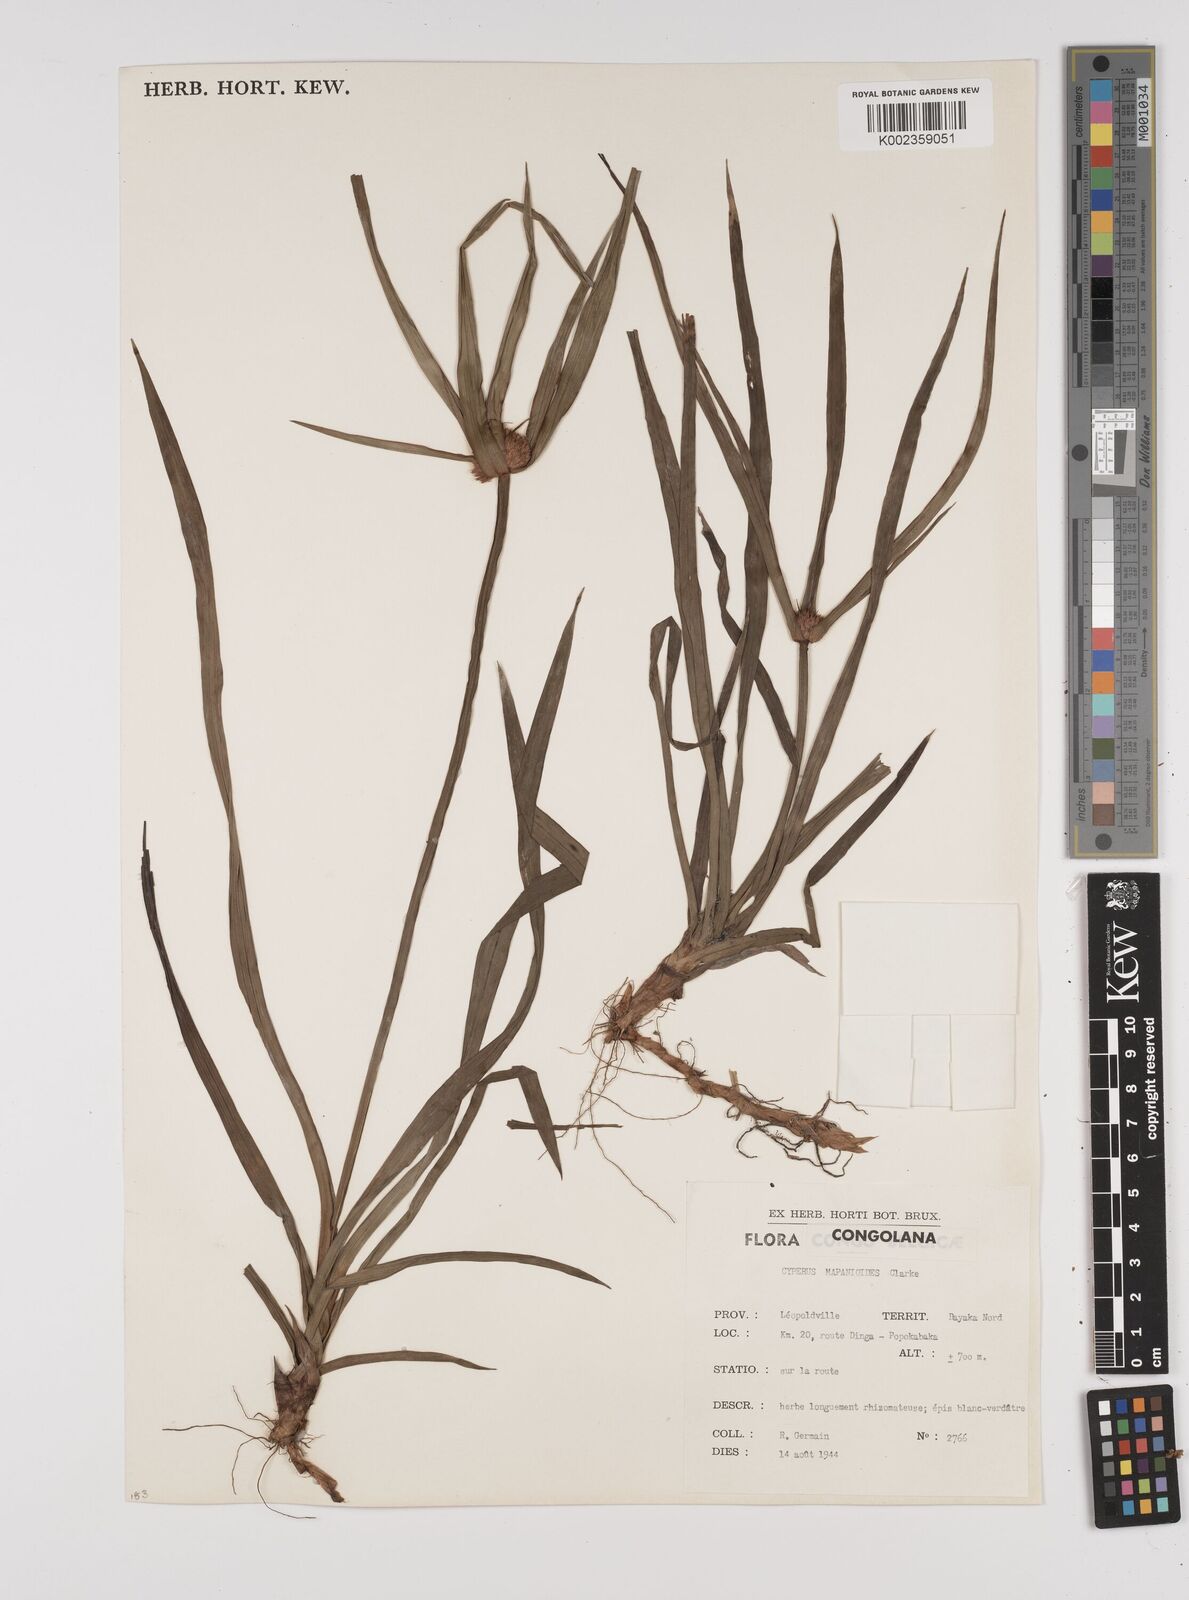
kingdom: Plantae
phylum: Tracheophyta
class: Liliopsida
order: Poales
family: Cyperaceae
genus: Cyperus
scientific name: Cyperus mapanioides
